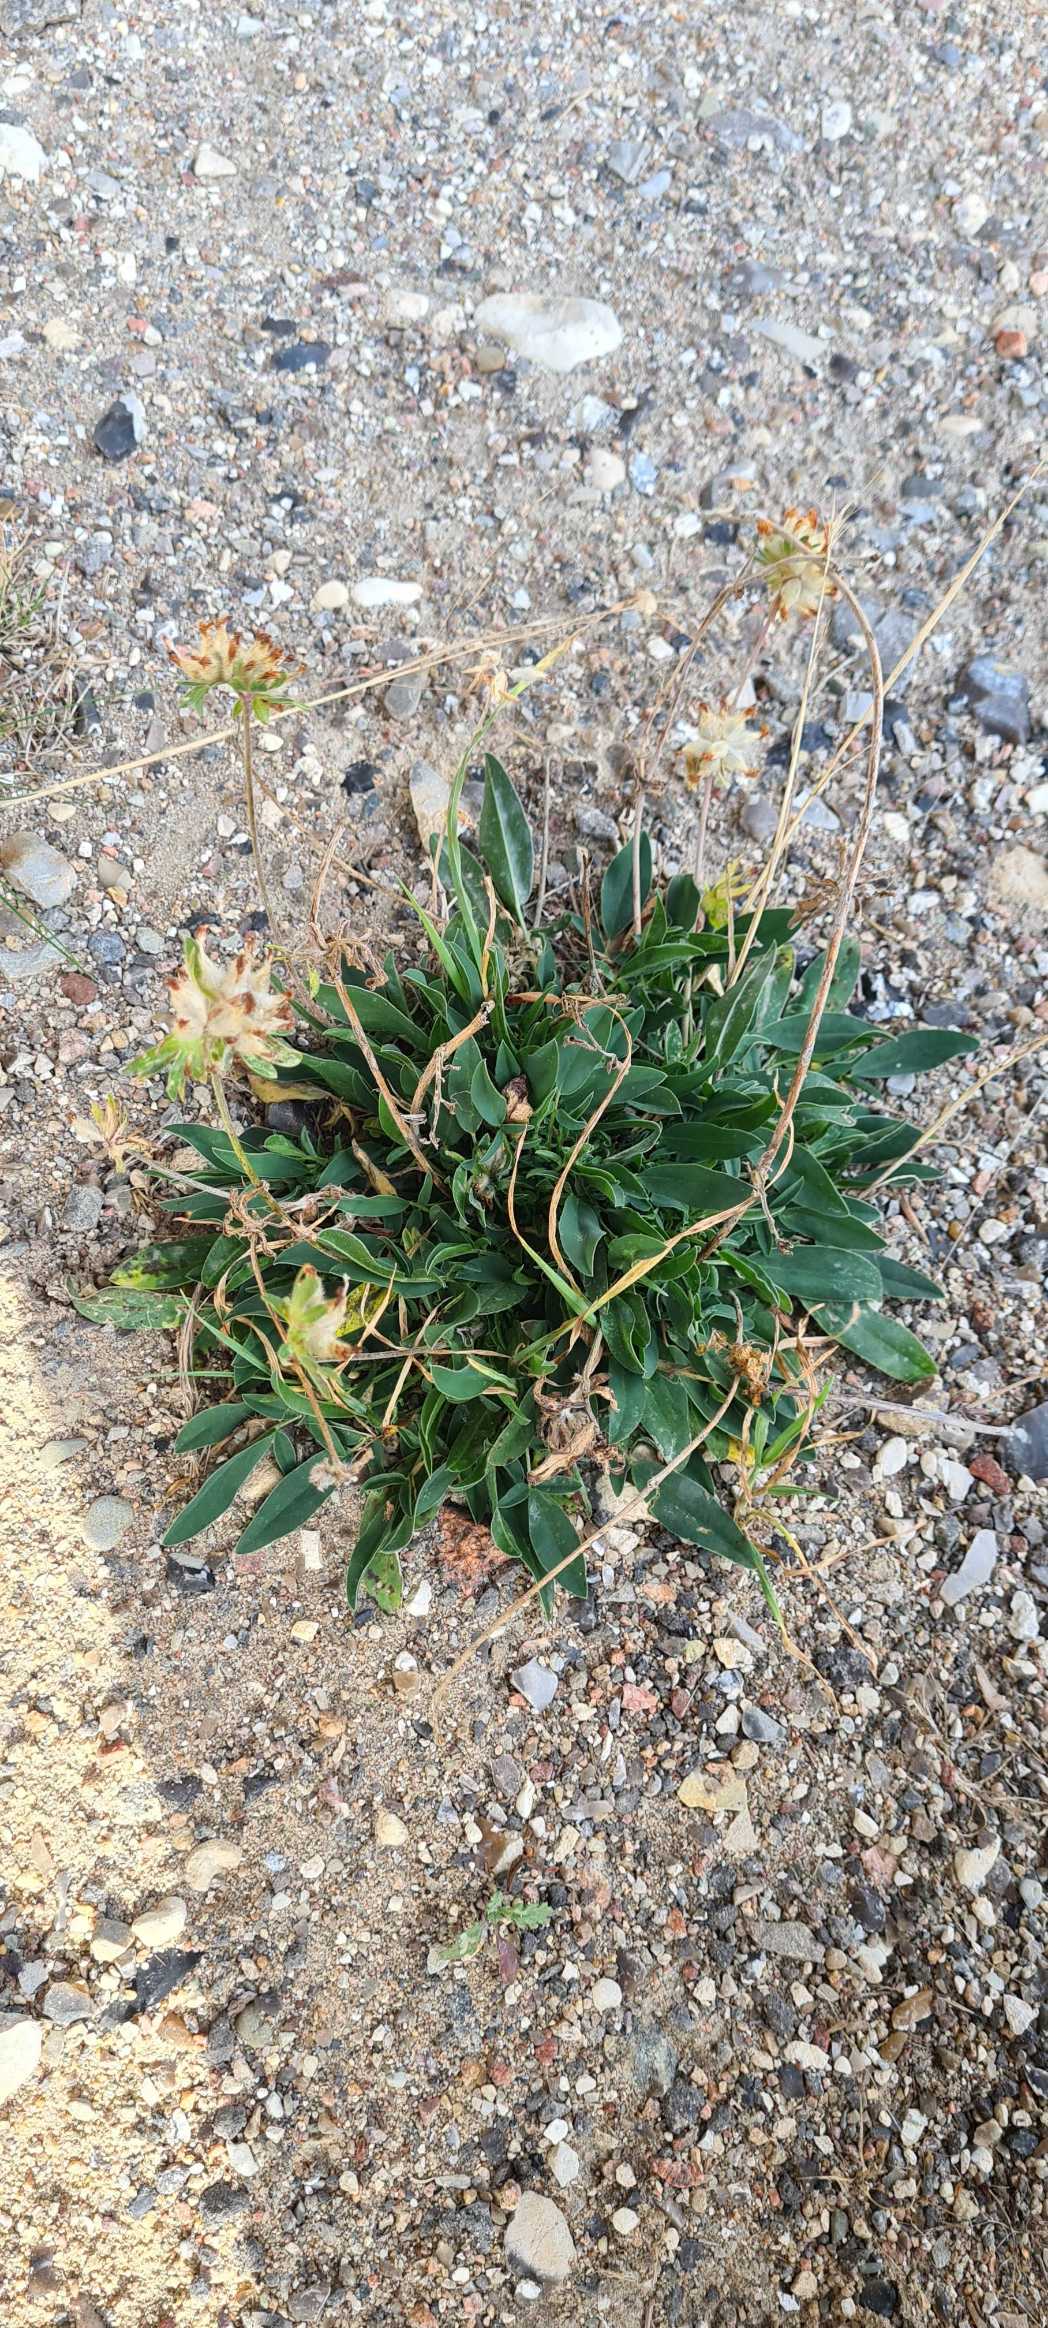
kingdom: Plantae
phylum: Tracheophyta
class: Magnoliopsida
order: Fabales
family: Fabaceae
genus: Anthyllis
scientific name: Anthyllis vulneraria
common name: Rundbælg
